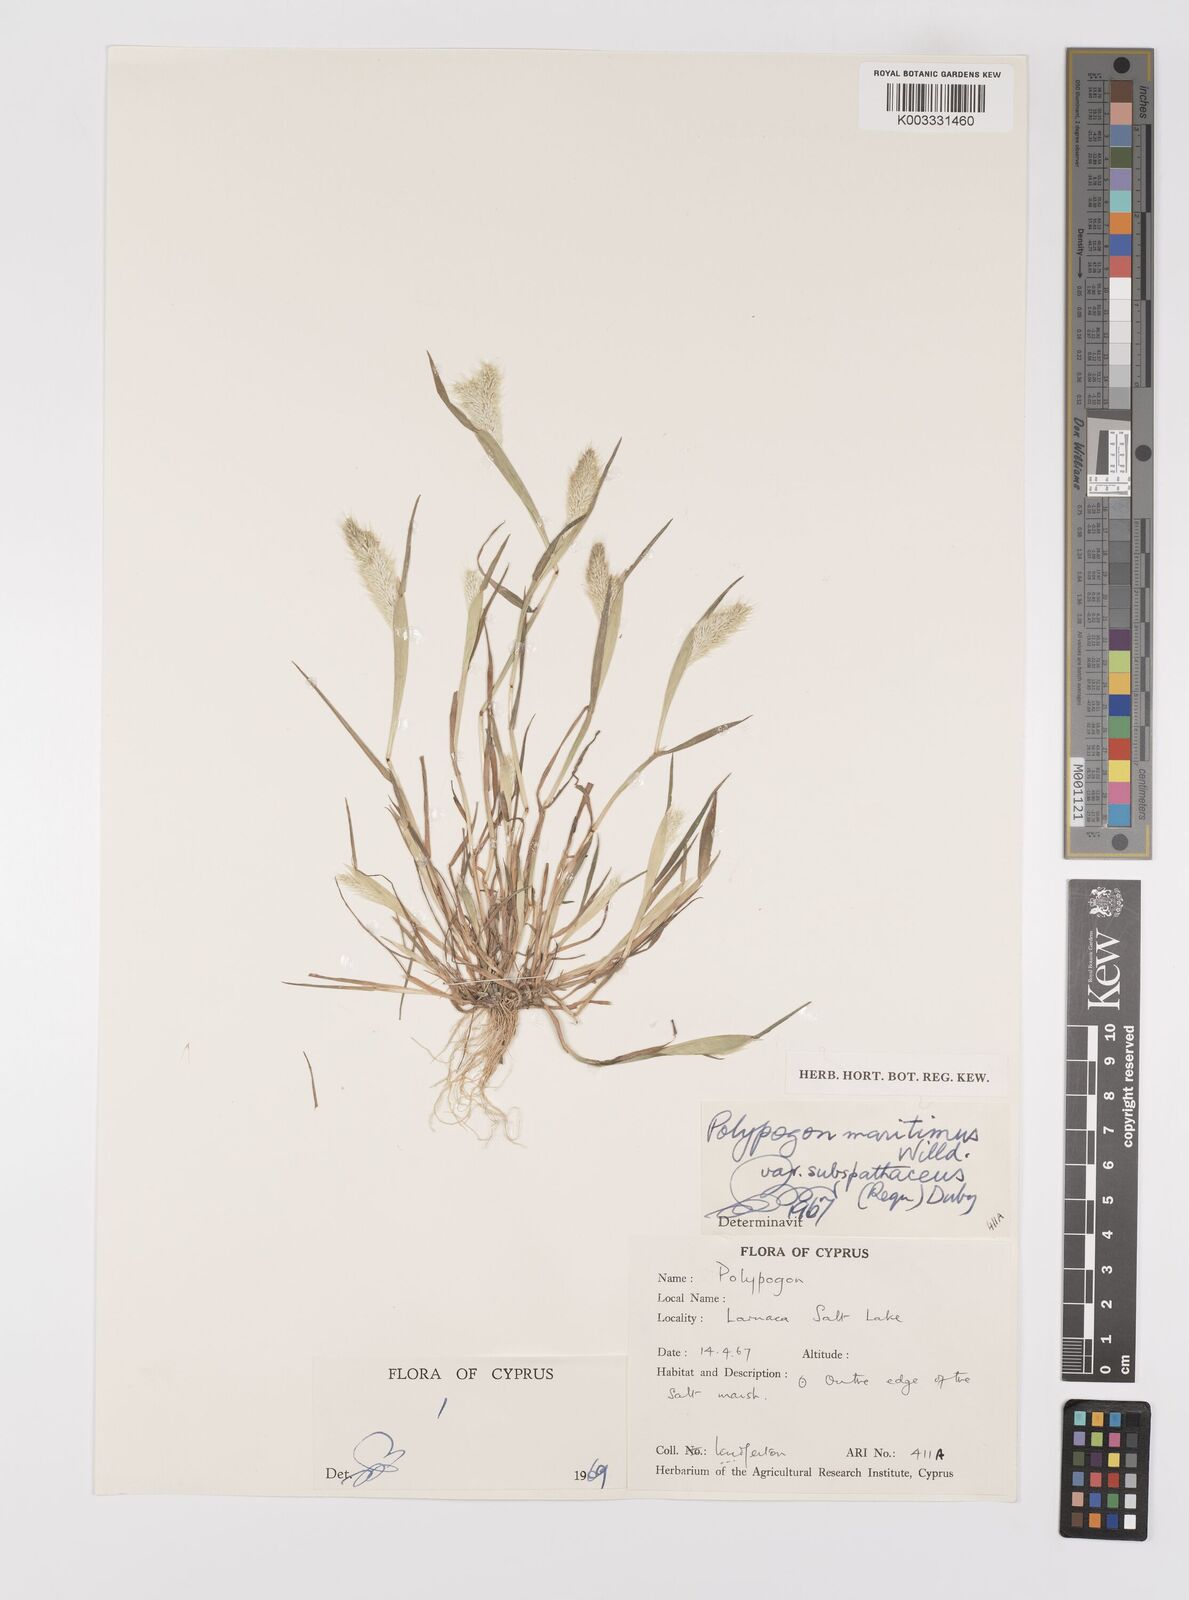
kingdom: Plantae
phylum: Tracheophyta
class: Liliopsida
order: Poales
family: Poaceae
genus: Polypogon
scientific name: Polypogon maritimus
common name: Mediterranean rabbitsfoot grass
